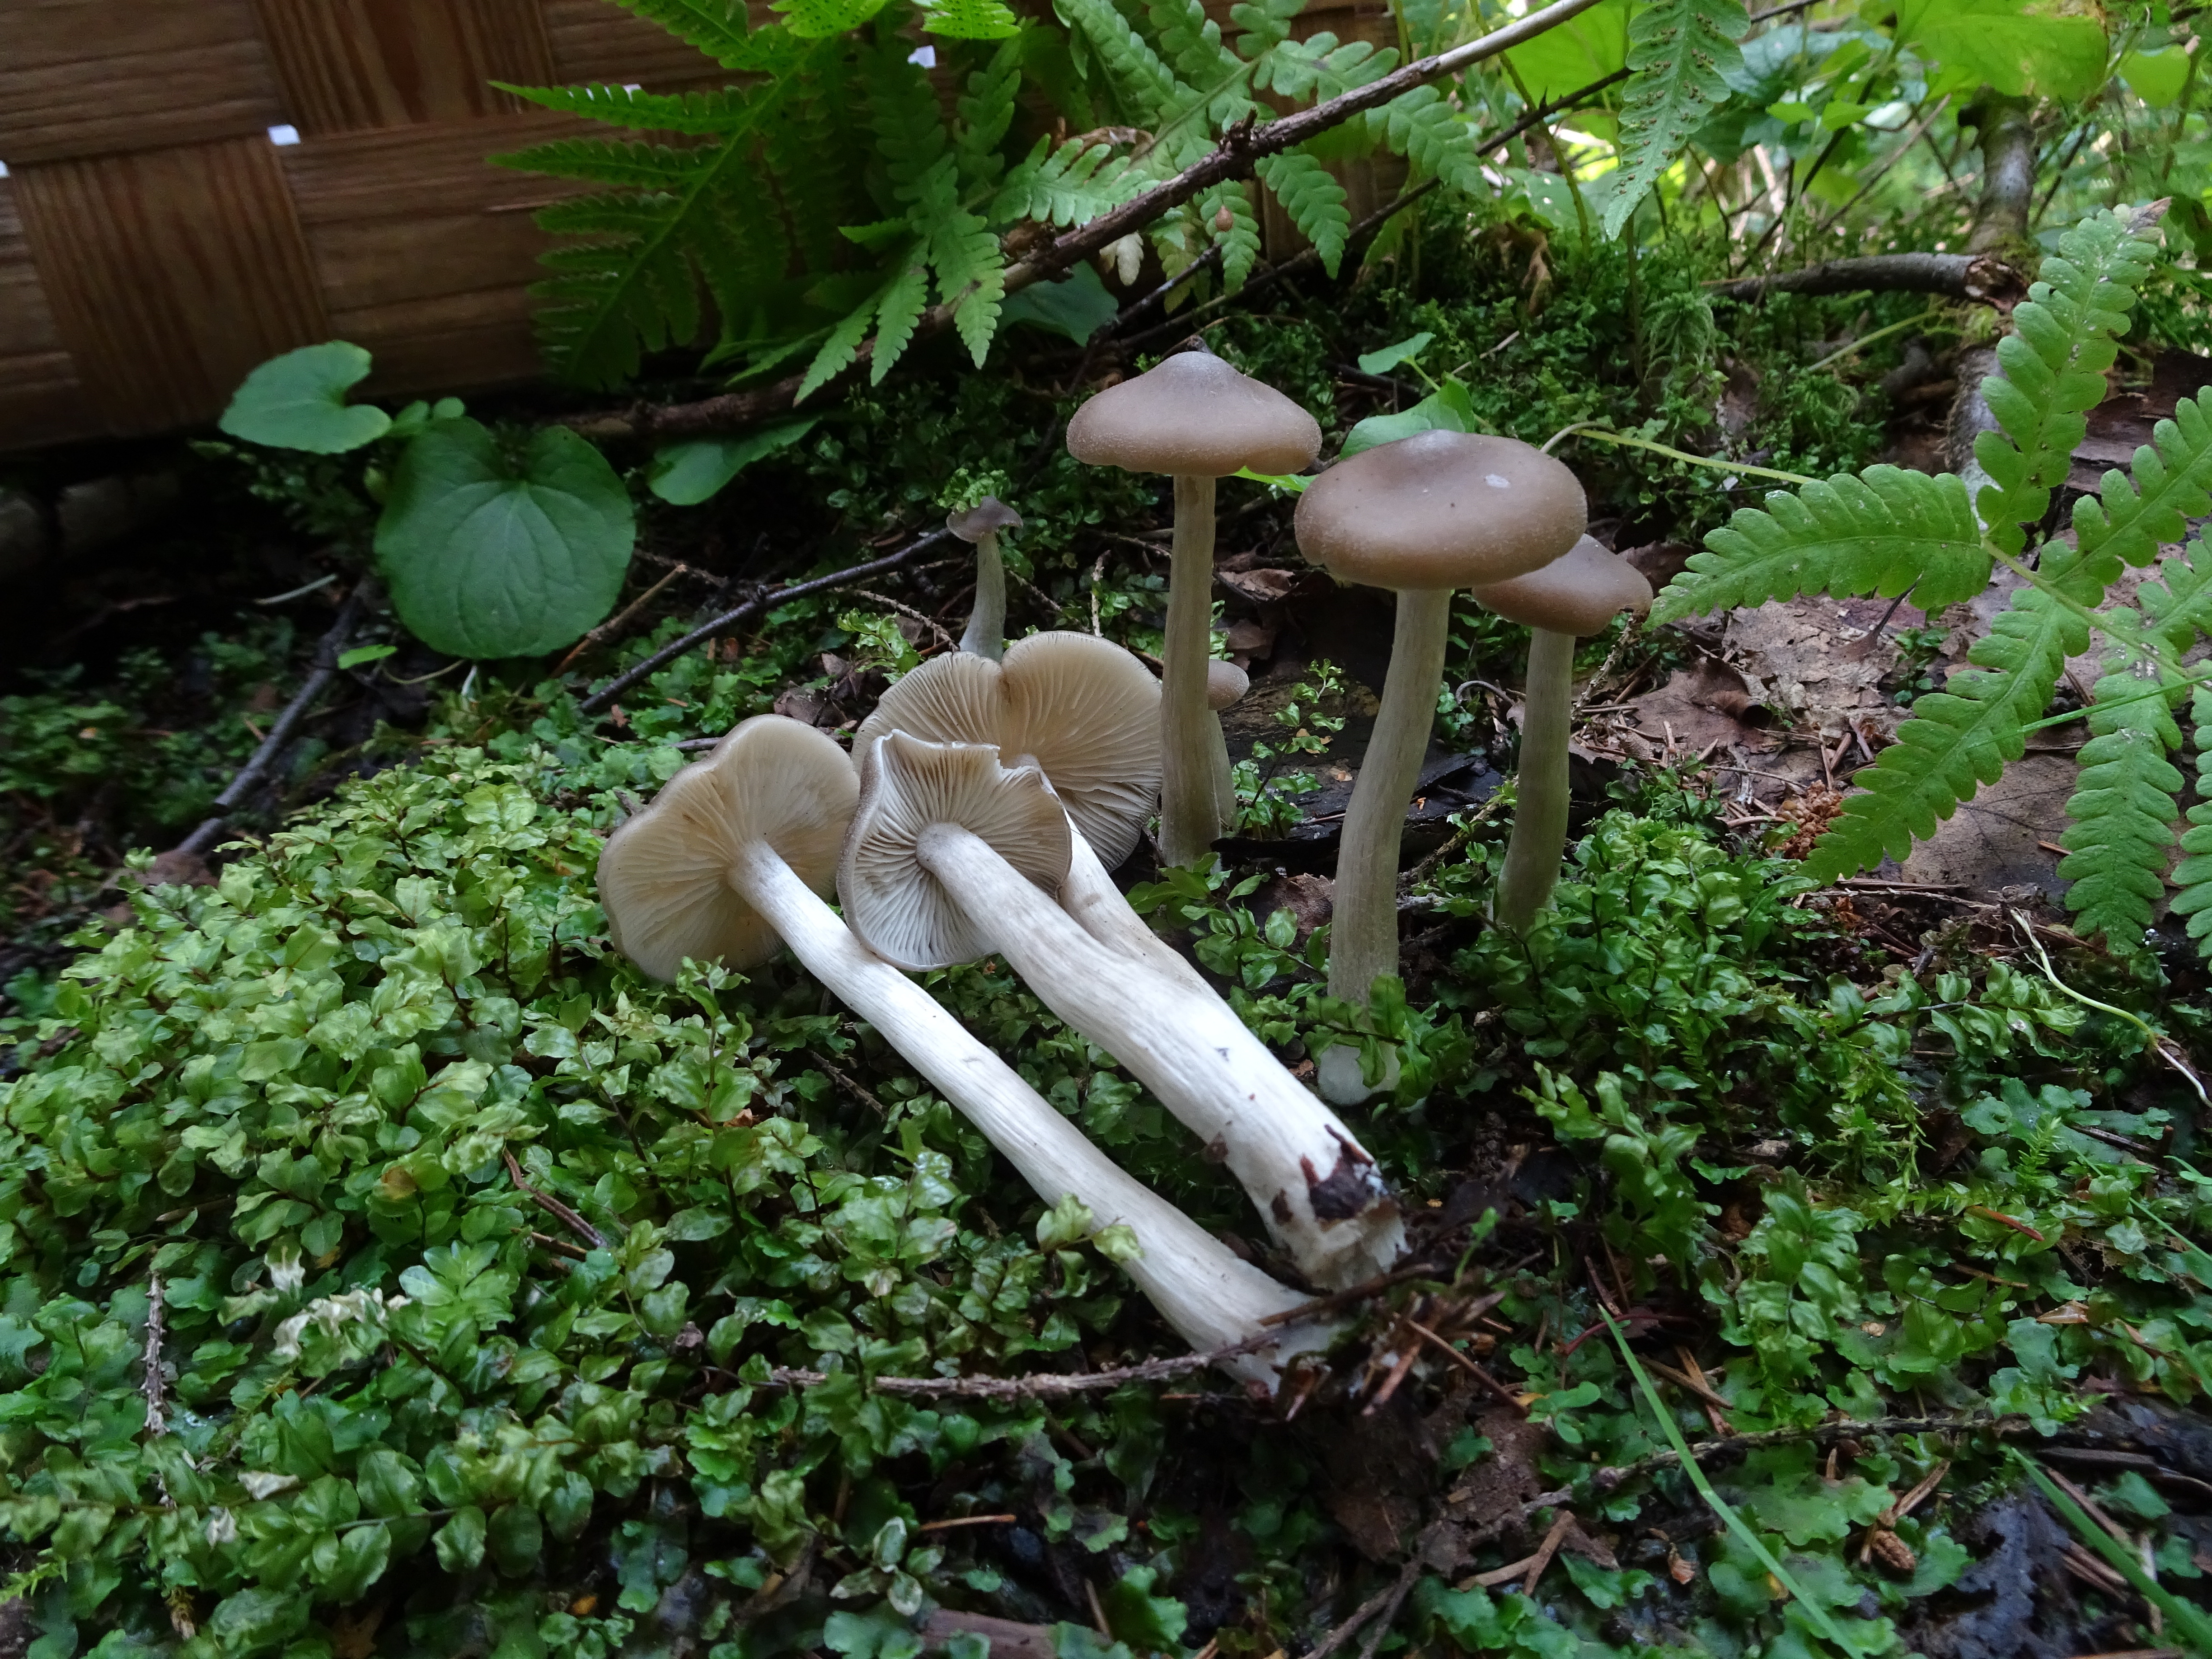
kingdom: Fungi
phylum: Basidiomycota
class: Agaricomycetes
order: Agaricales
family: Entolomataceae
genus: Entoloma
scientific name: Entoloma
